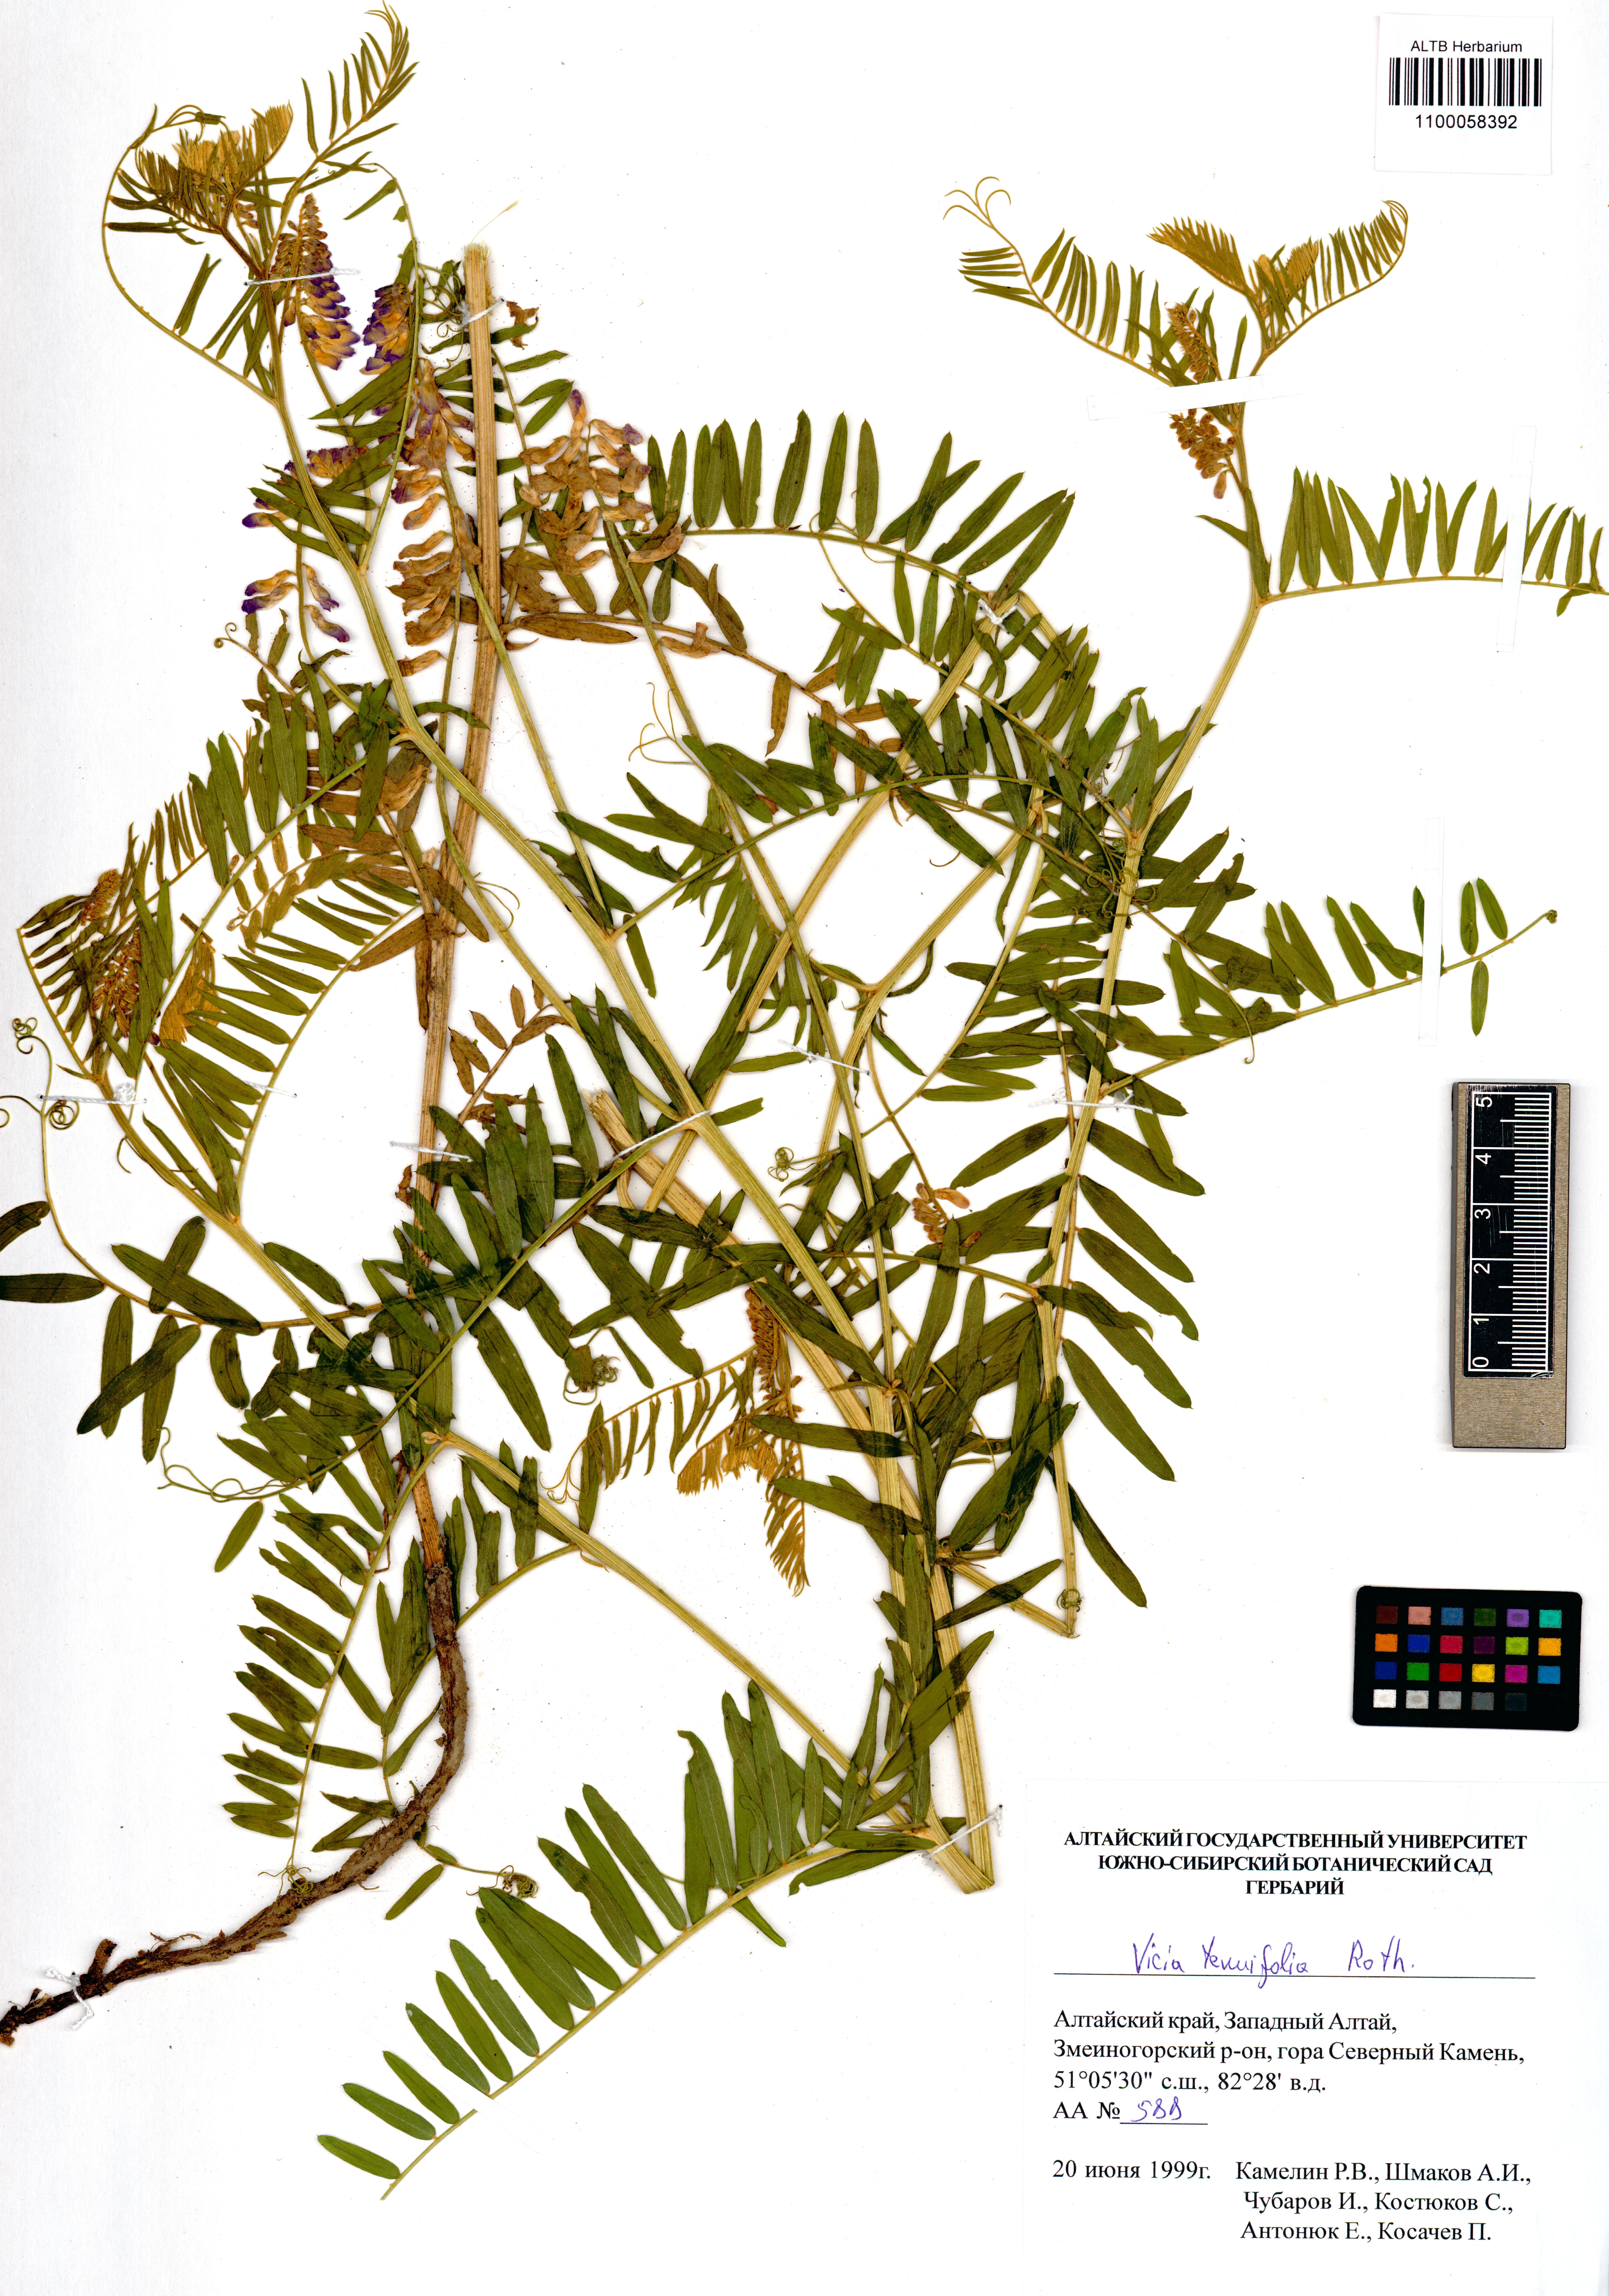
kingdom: Plantae
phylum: Tracheophyta
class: Magnoliopsida
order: Fabales
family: Fabaceae
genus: Vicia
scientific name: Vicia tenuifolia
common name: Fine-leaved vetch
